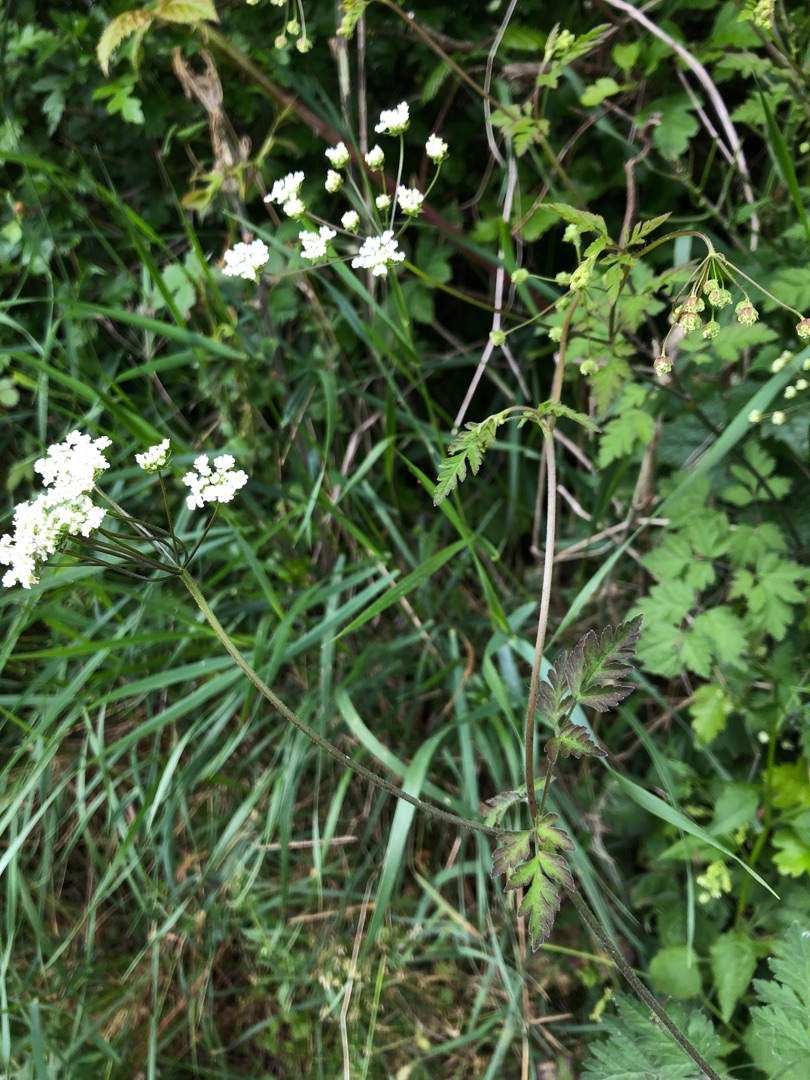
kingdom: Plantae
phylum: Tracheophyta
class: Magnoliopsida
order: Apiales
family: Apiaceae
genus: Chaerophyllum
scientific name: Chaerophyllum temulum
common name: Almindelig hulsvøb
